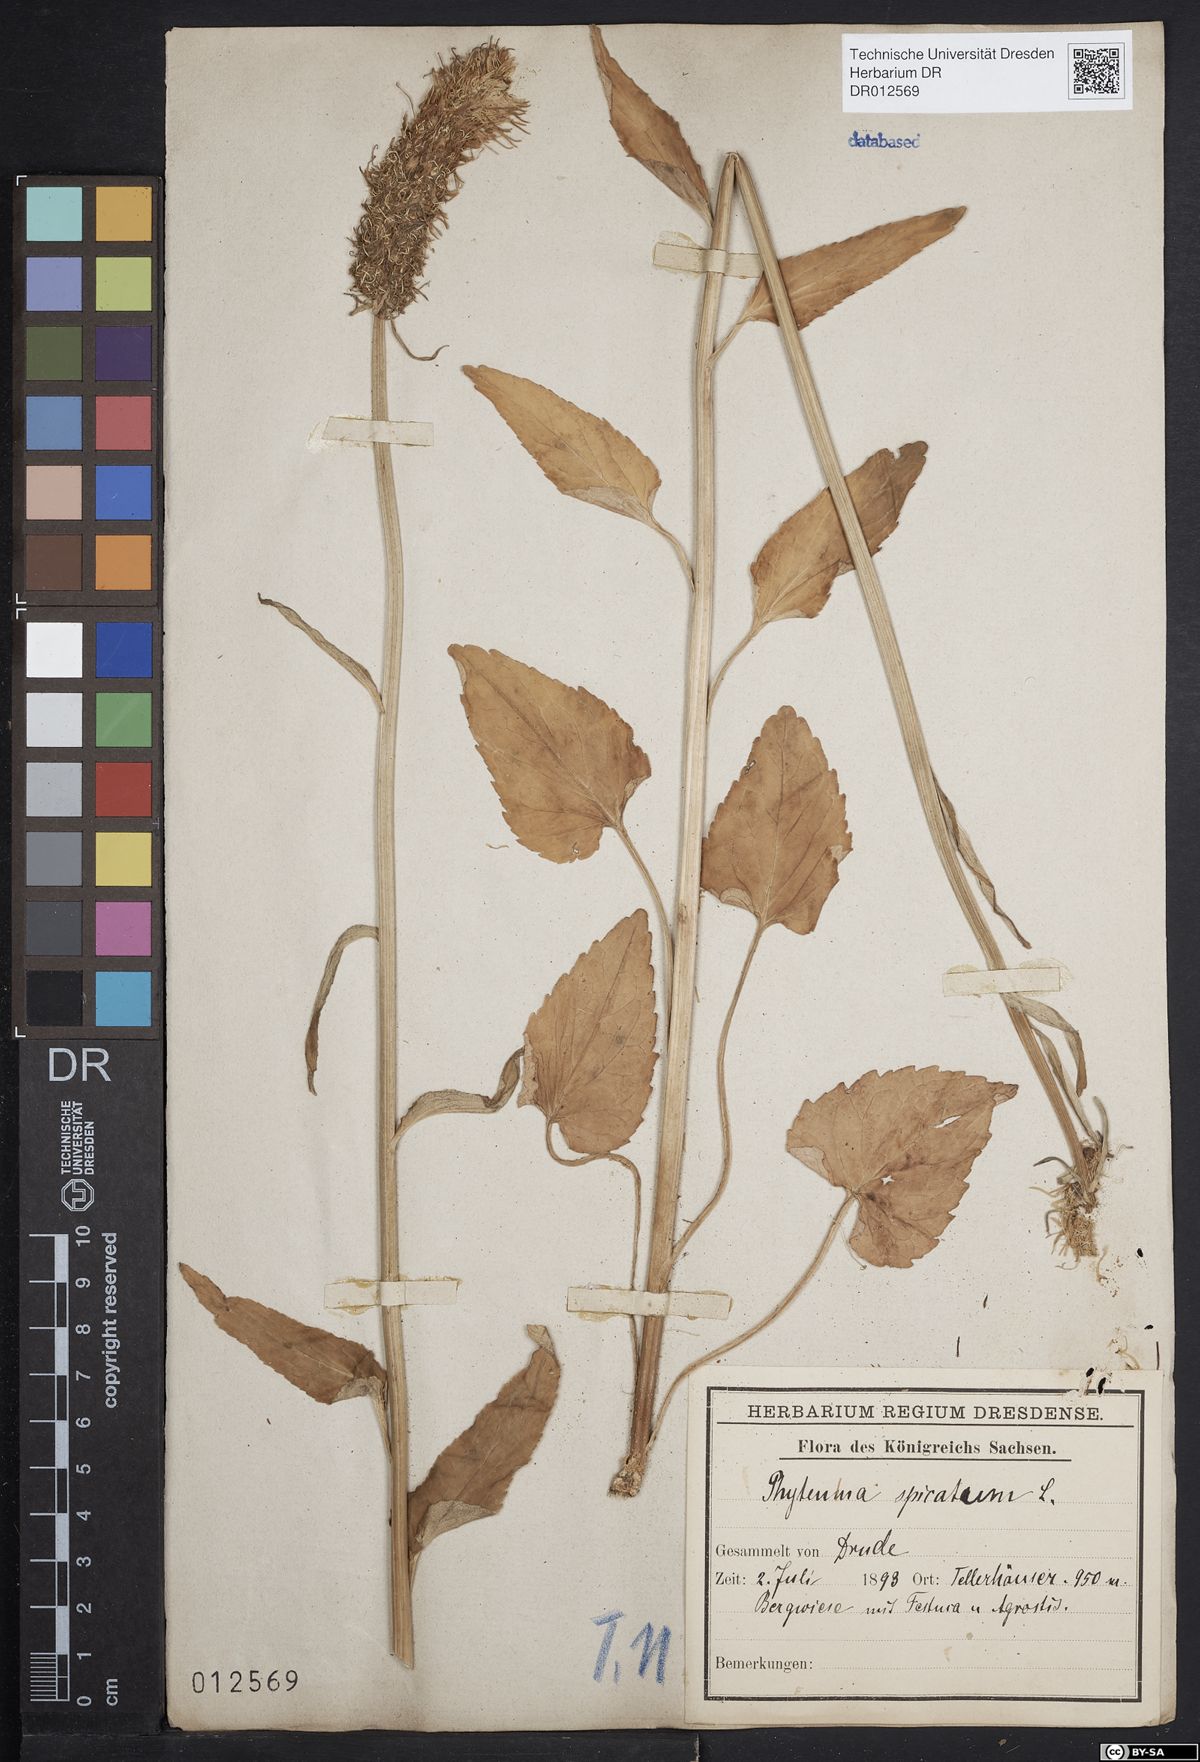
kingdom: Plantae
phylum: Tracheophyta
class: Magnoliopsida
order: Asterales
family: Campanulaceae
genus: Phyteuma
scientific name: Phyteuma spicatum
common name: Spiked rampion
